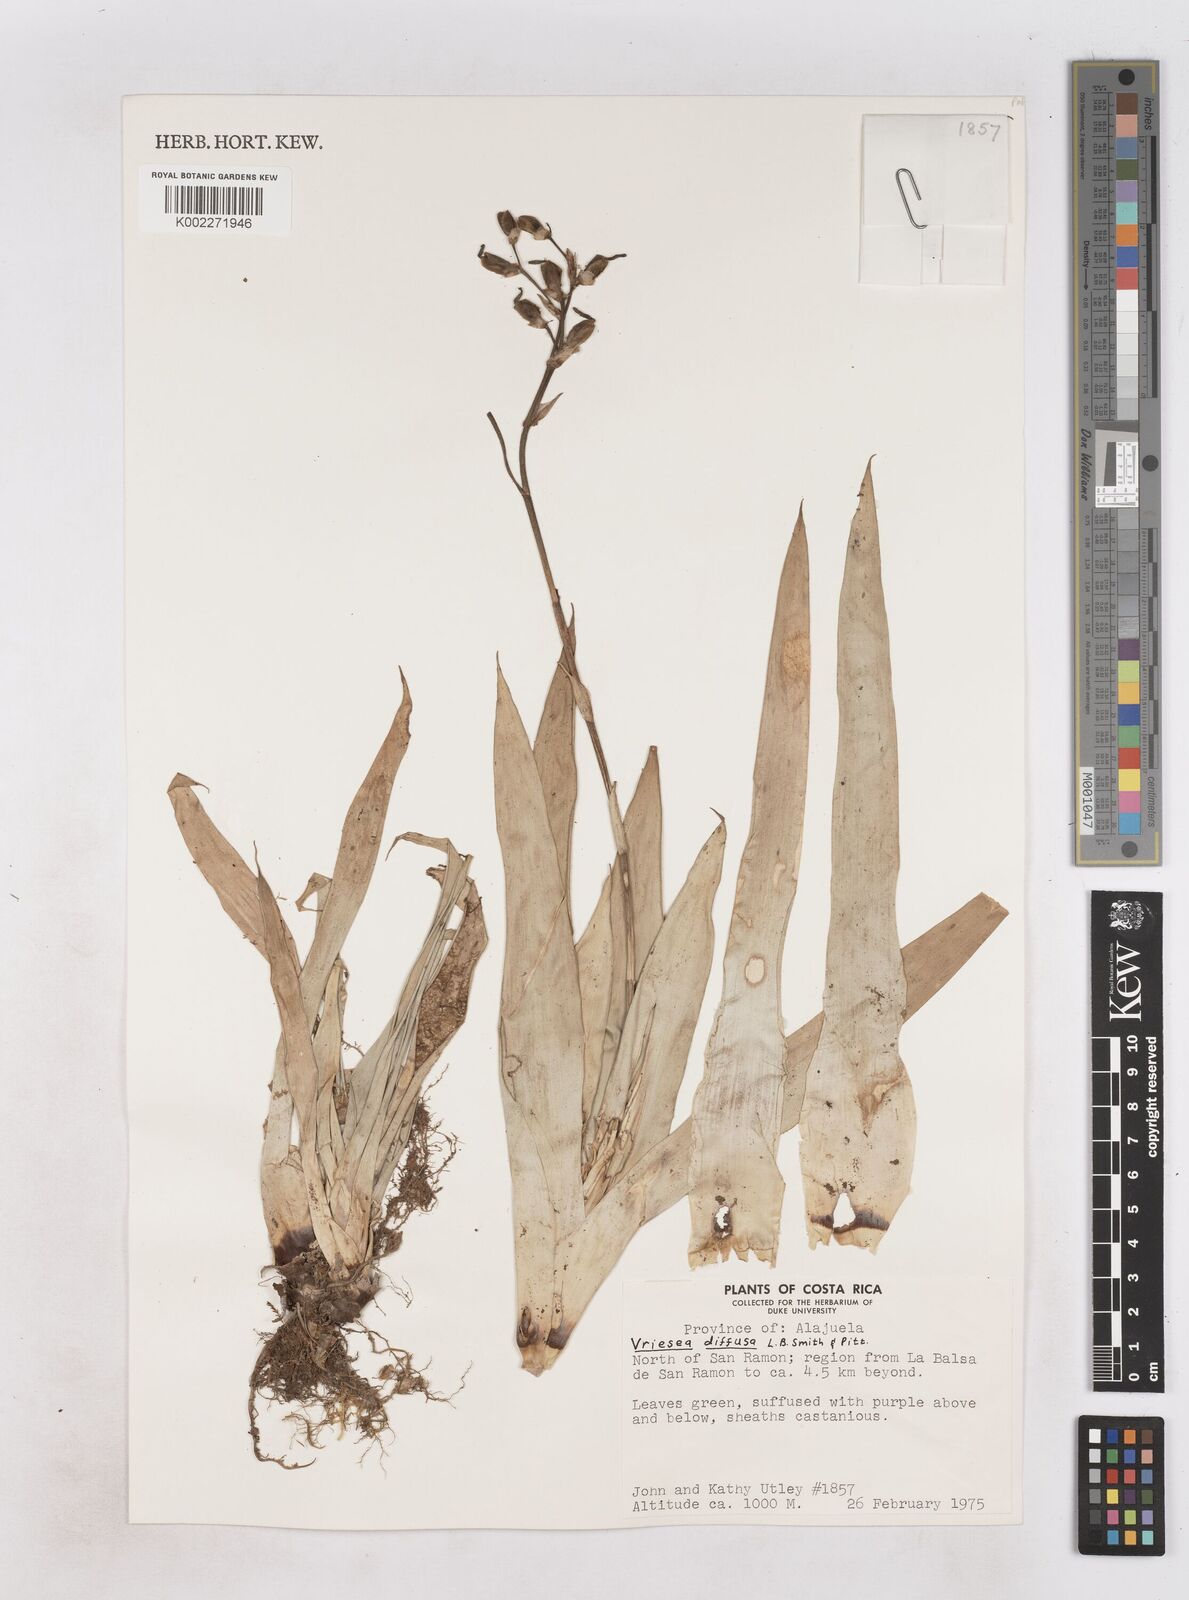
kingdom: Plantae
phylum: Tracheophyta
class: Liliopsida
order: Poales
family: Bromeliaceae
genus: Werauhia
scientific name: Werauhia laxa
